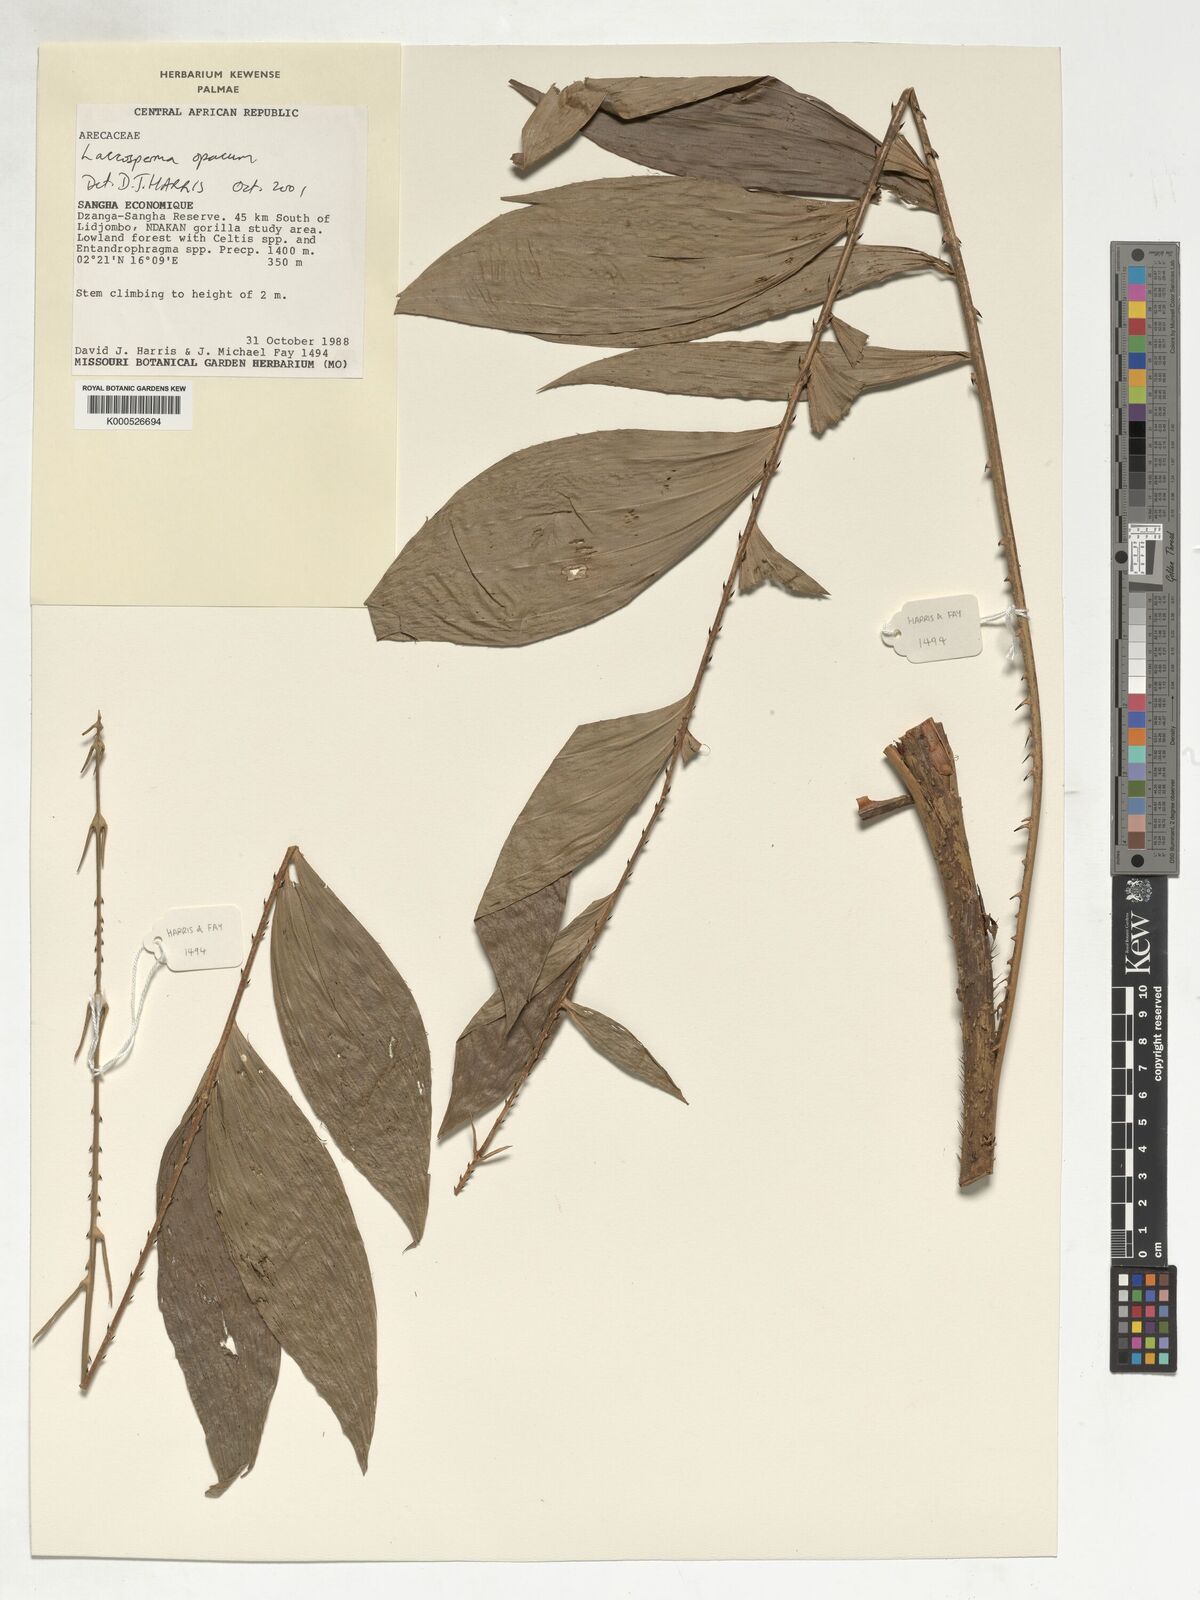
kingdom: Plantae
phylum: Tracheophyta
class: Liliopsida
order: Arecales
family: Arecaceae
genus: Laccosperma
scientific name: Laccosperma opacum
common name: Rattan
